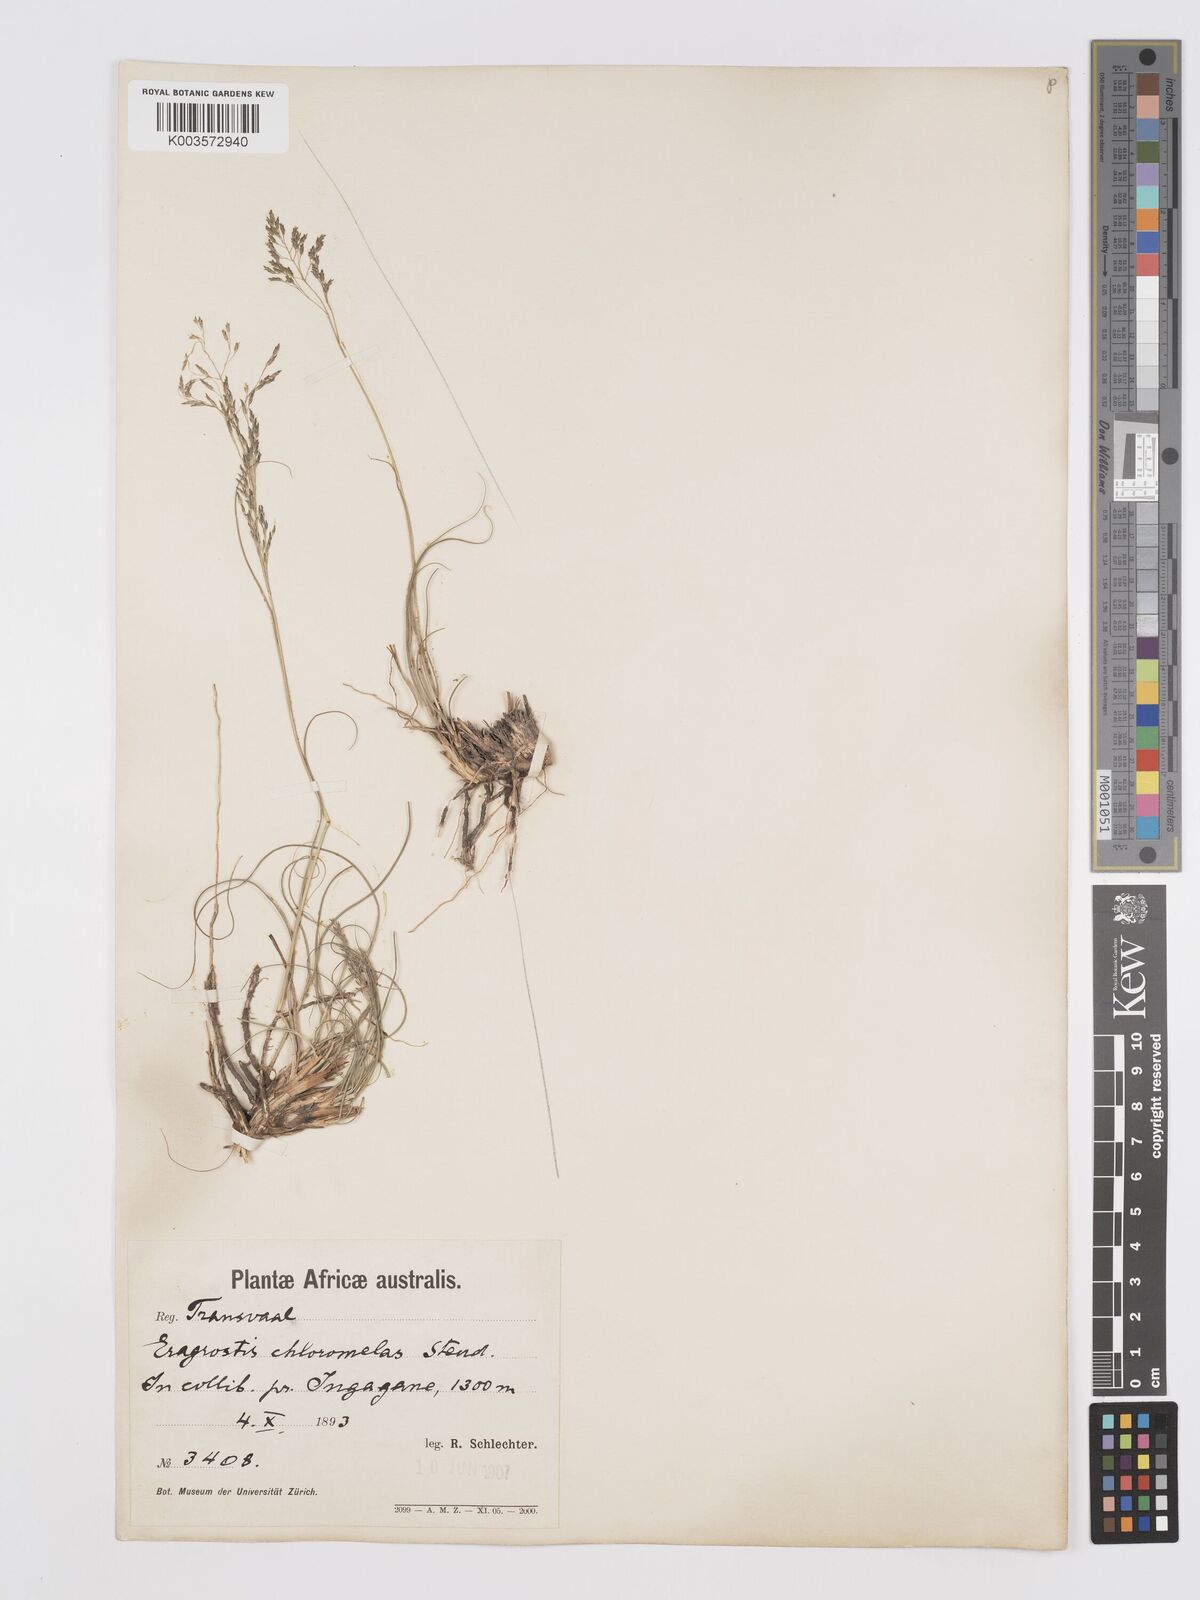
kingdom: Plantae
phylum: Tracheophyta
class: Liliopsida
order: Poales
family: Poaceae
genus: Eragrostis
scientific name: Eragrostis curvula
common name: African love-grass
